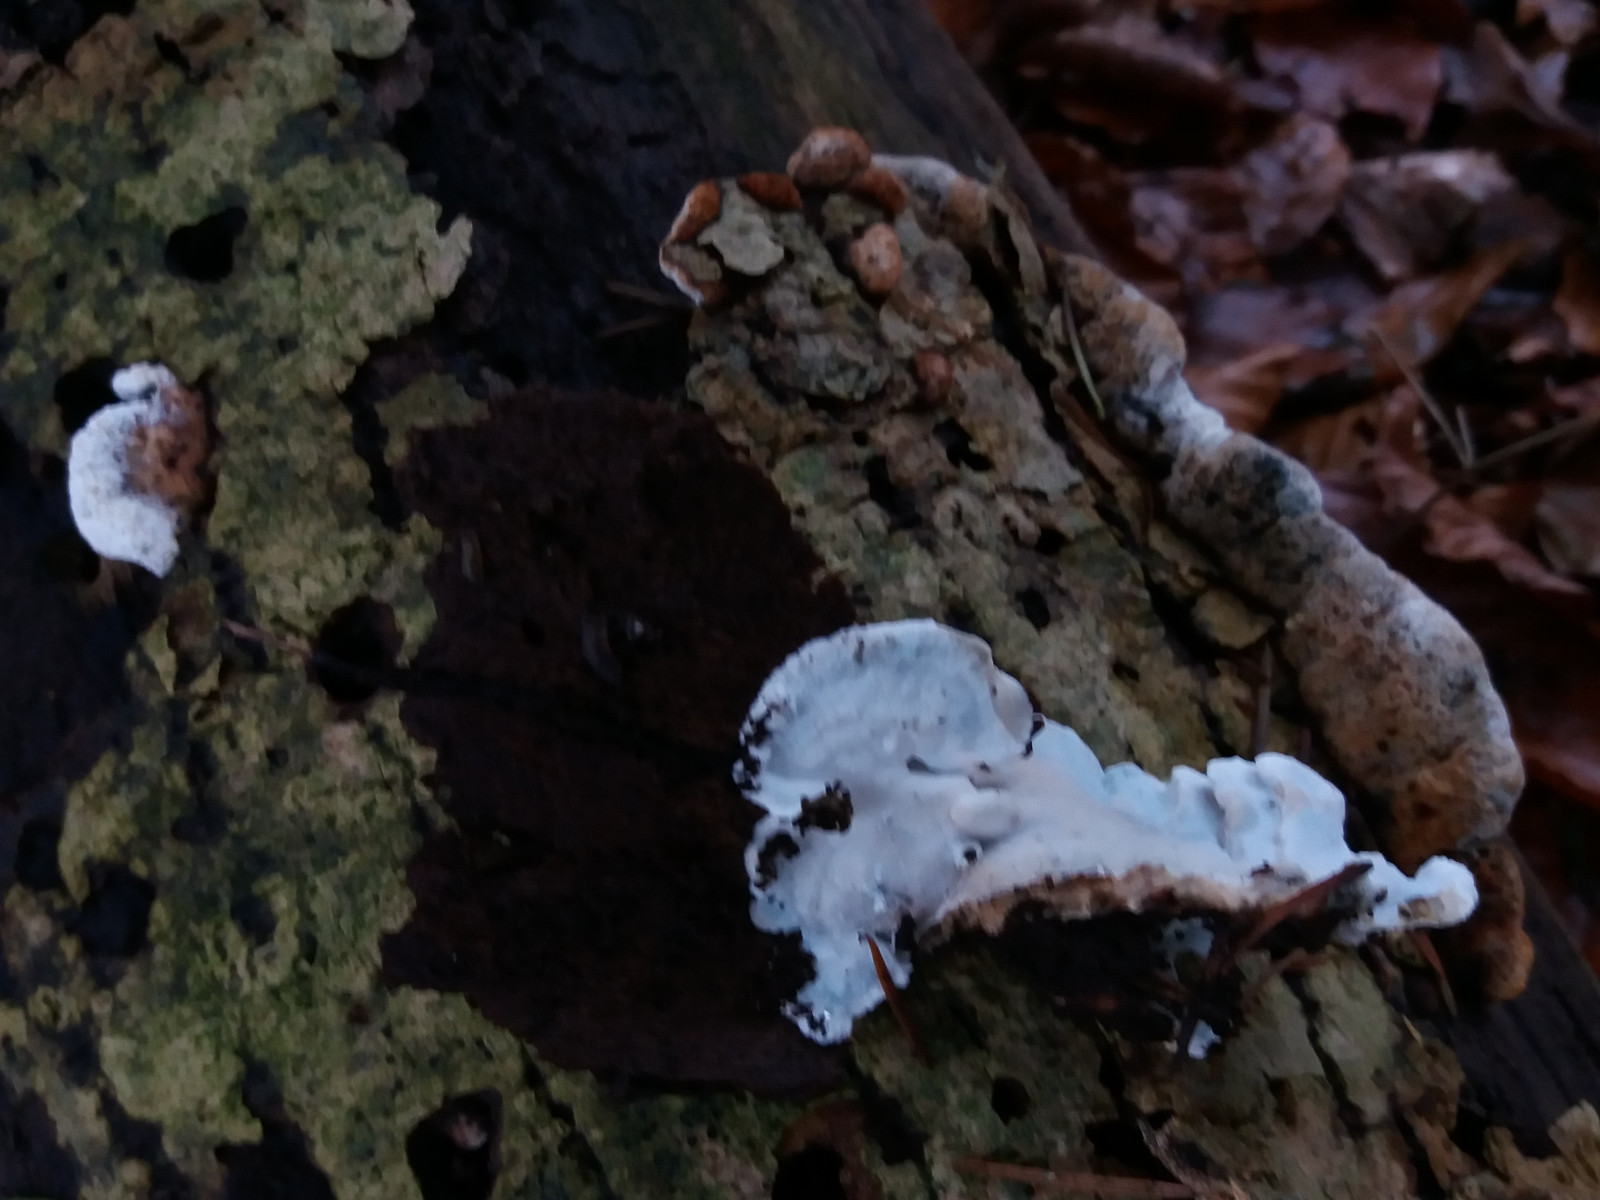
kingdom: Fungi
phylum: Basidiomycota
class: Agaricomycetes
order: Polyporales
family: Incrustoporiaceae
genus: Skeletocutis
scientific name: Skeletocutis nemoralis
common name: stor krystalporesvamp
